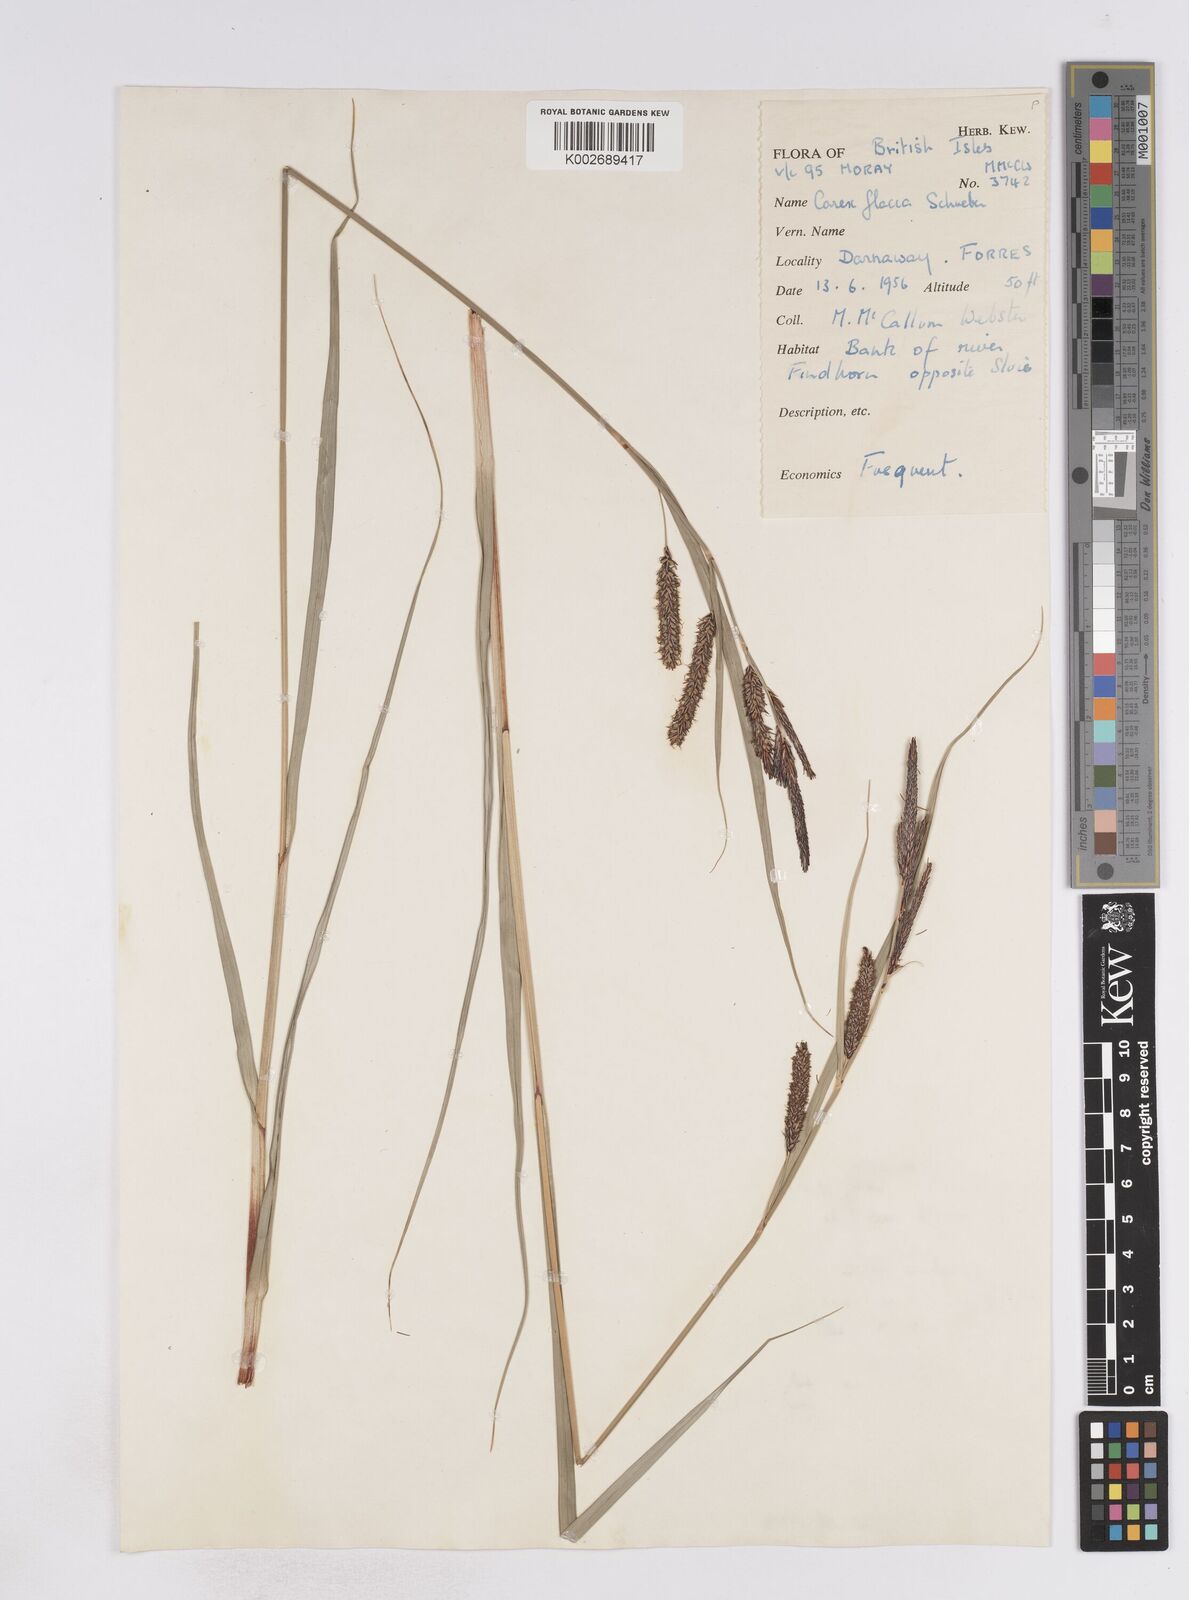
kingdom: Plantae
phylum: Tracheophyta
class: Liliopsida
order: Poales
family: Cyperaceae
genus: Carex
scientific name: Carex flacca
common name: Glaucous sedge
